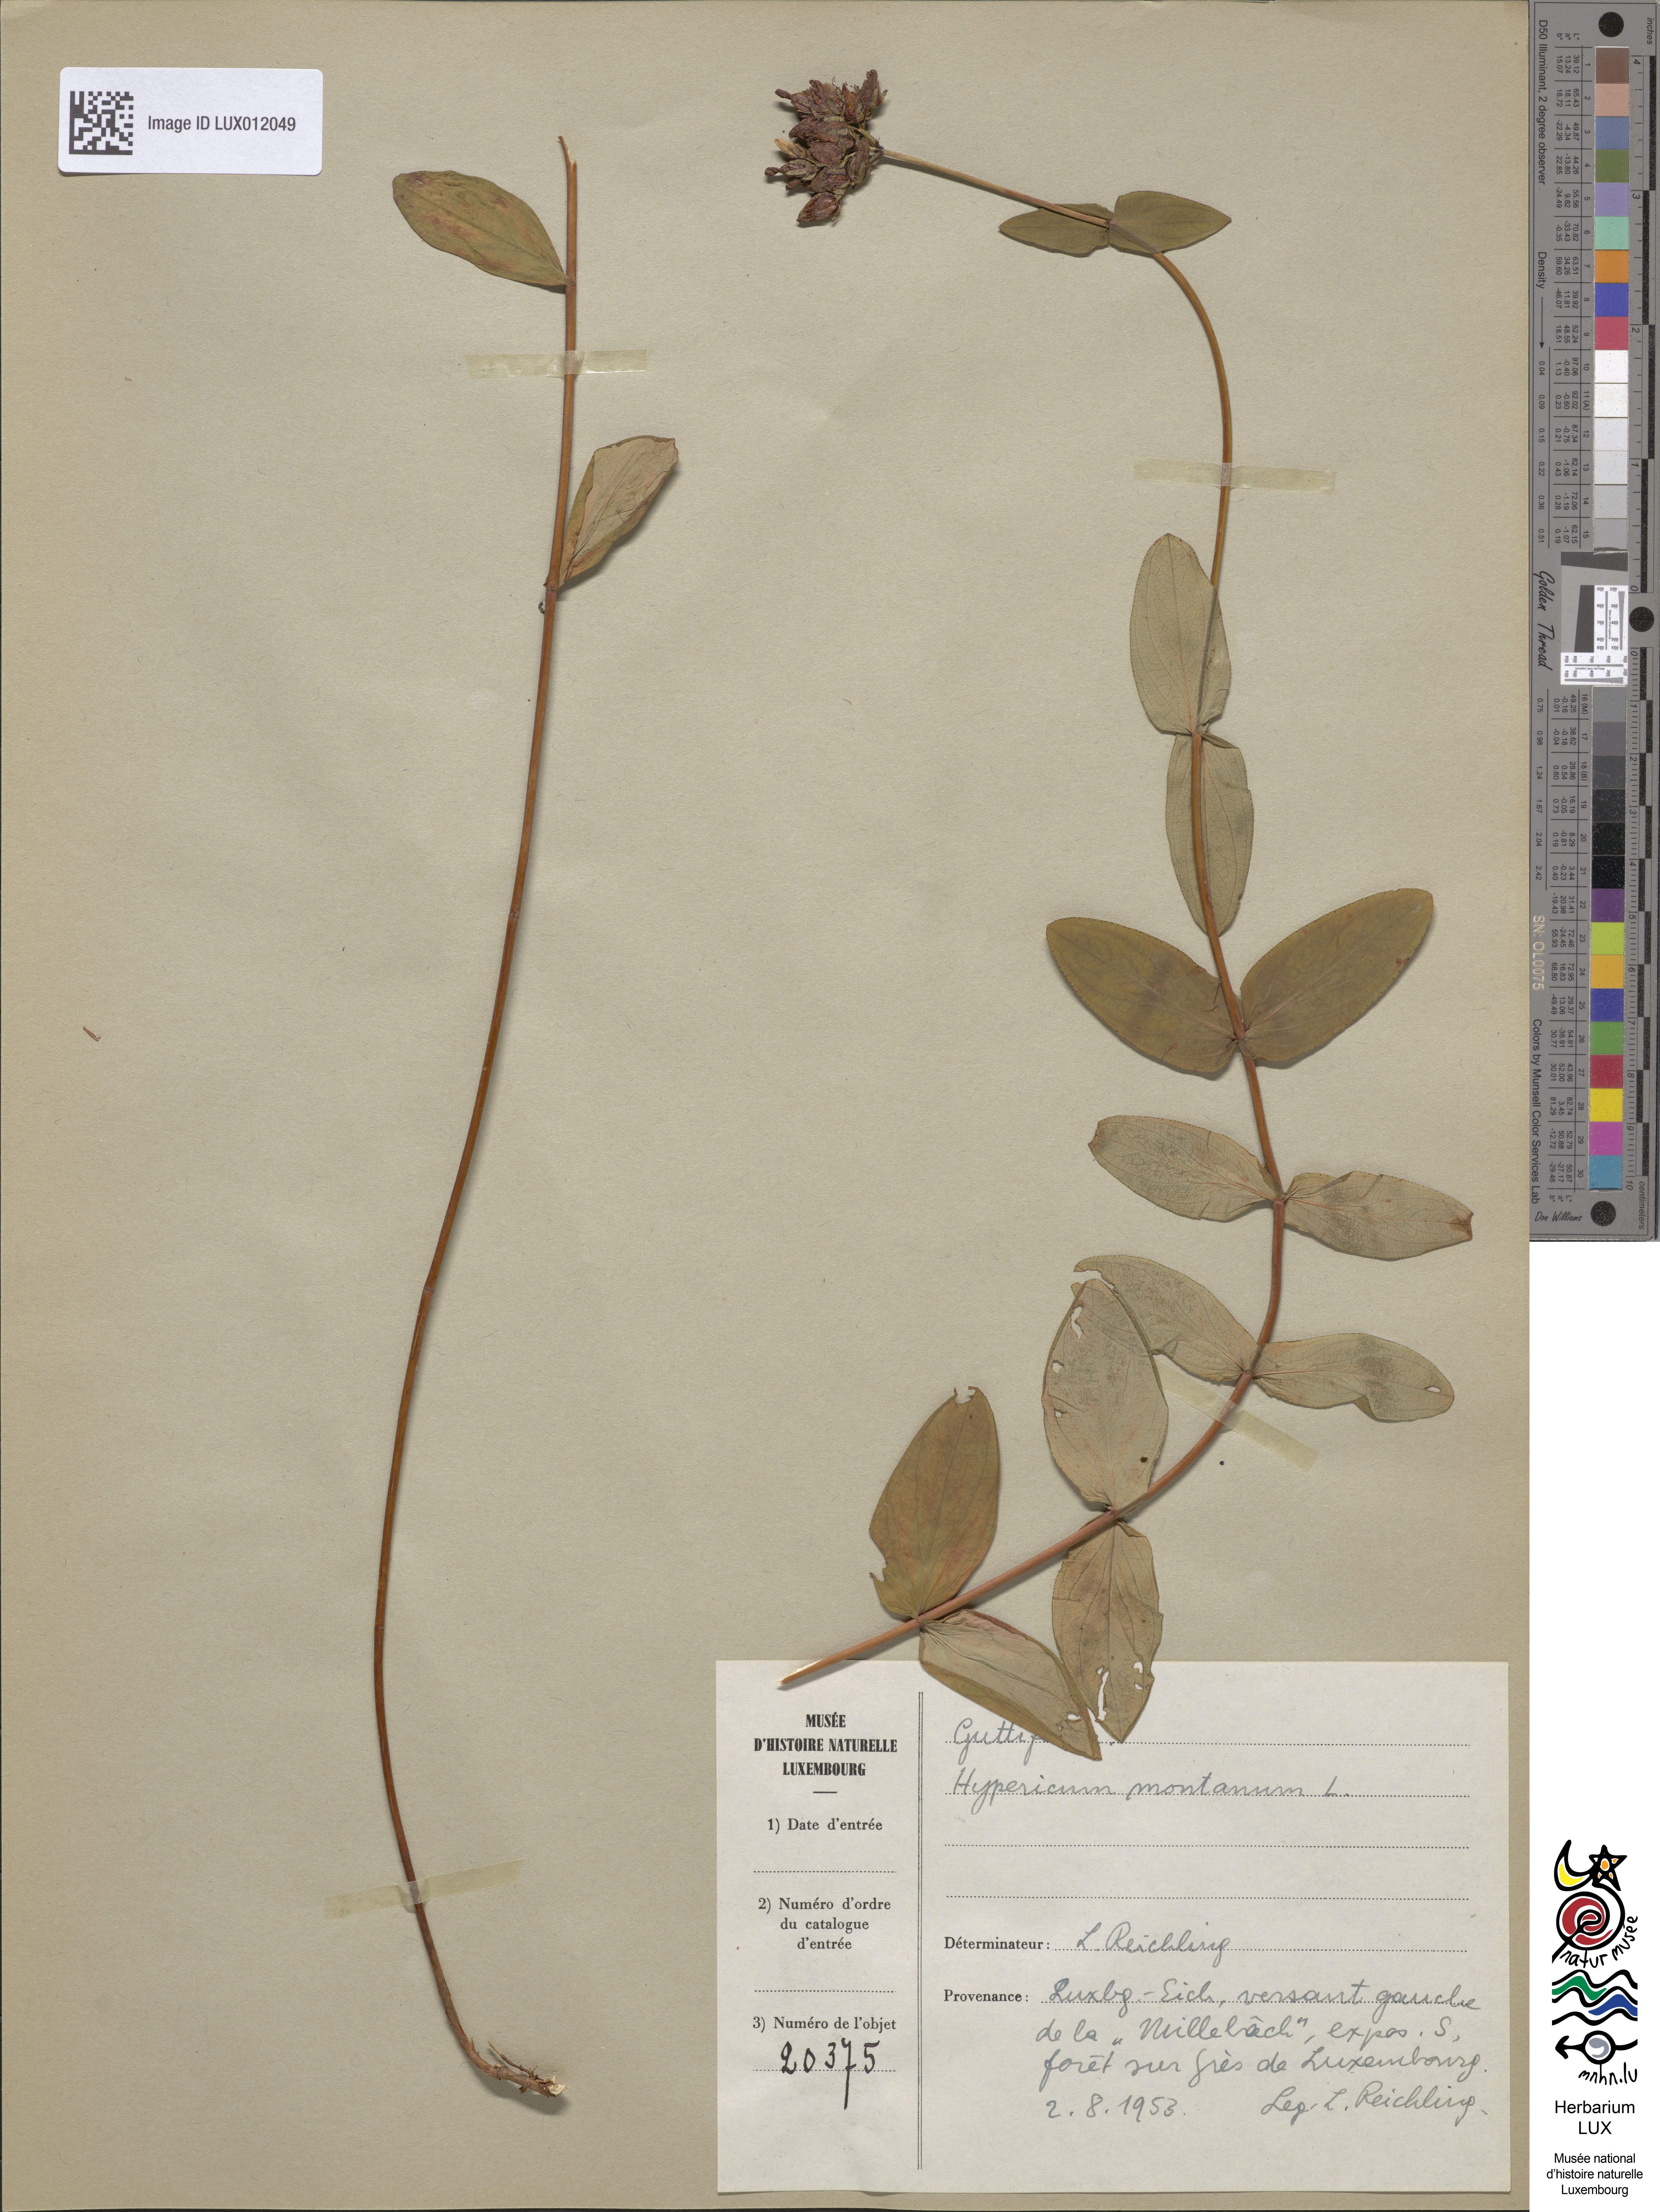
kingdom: Plantae
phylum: Tracheophyta
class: Magnoliopsida
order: Malpighiales
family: Hypericaceae
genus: Hypericum
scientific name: Hypericum montanum
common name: Pale st. john's-wort
